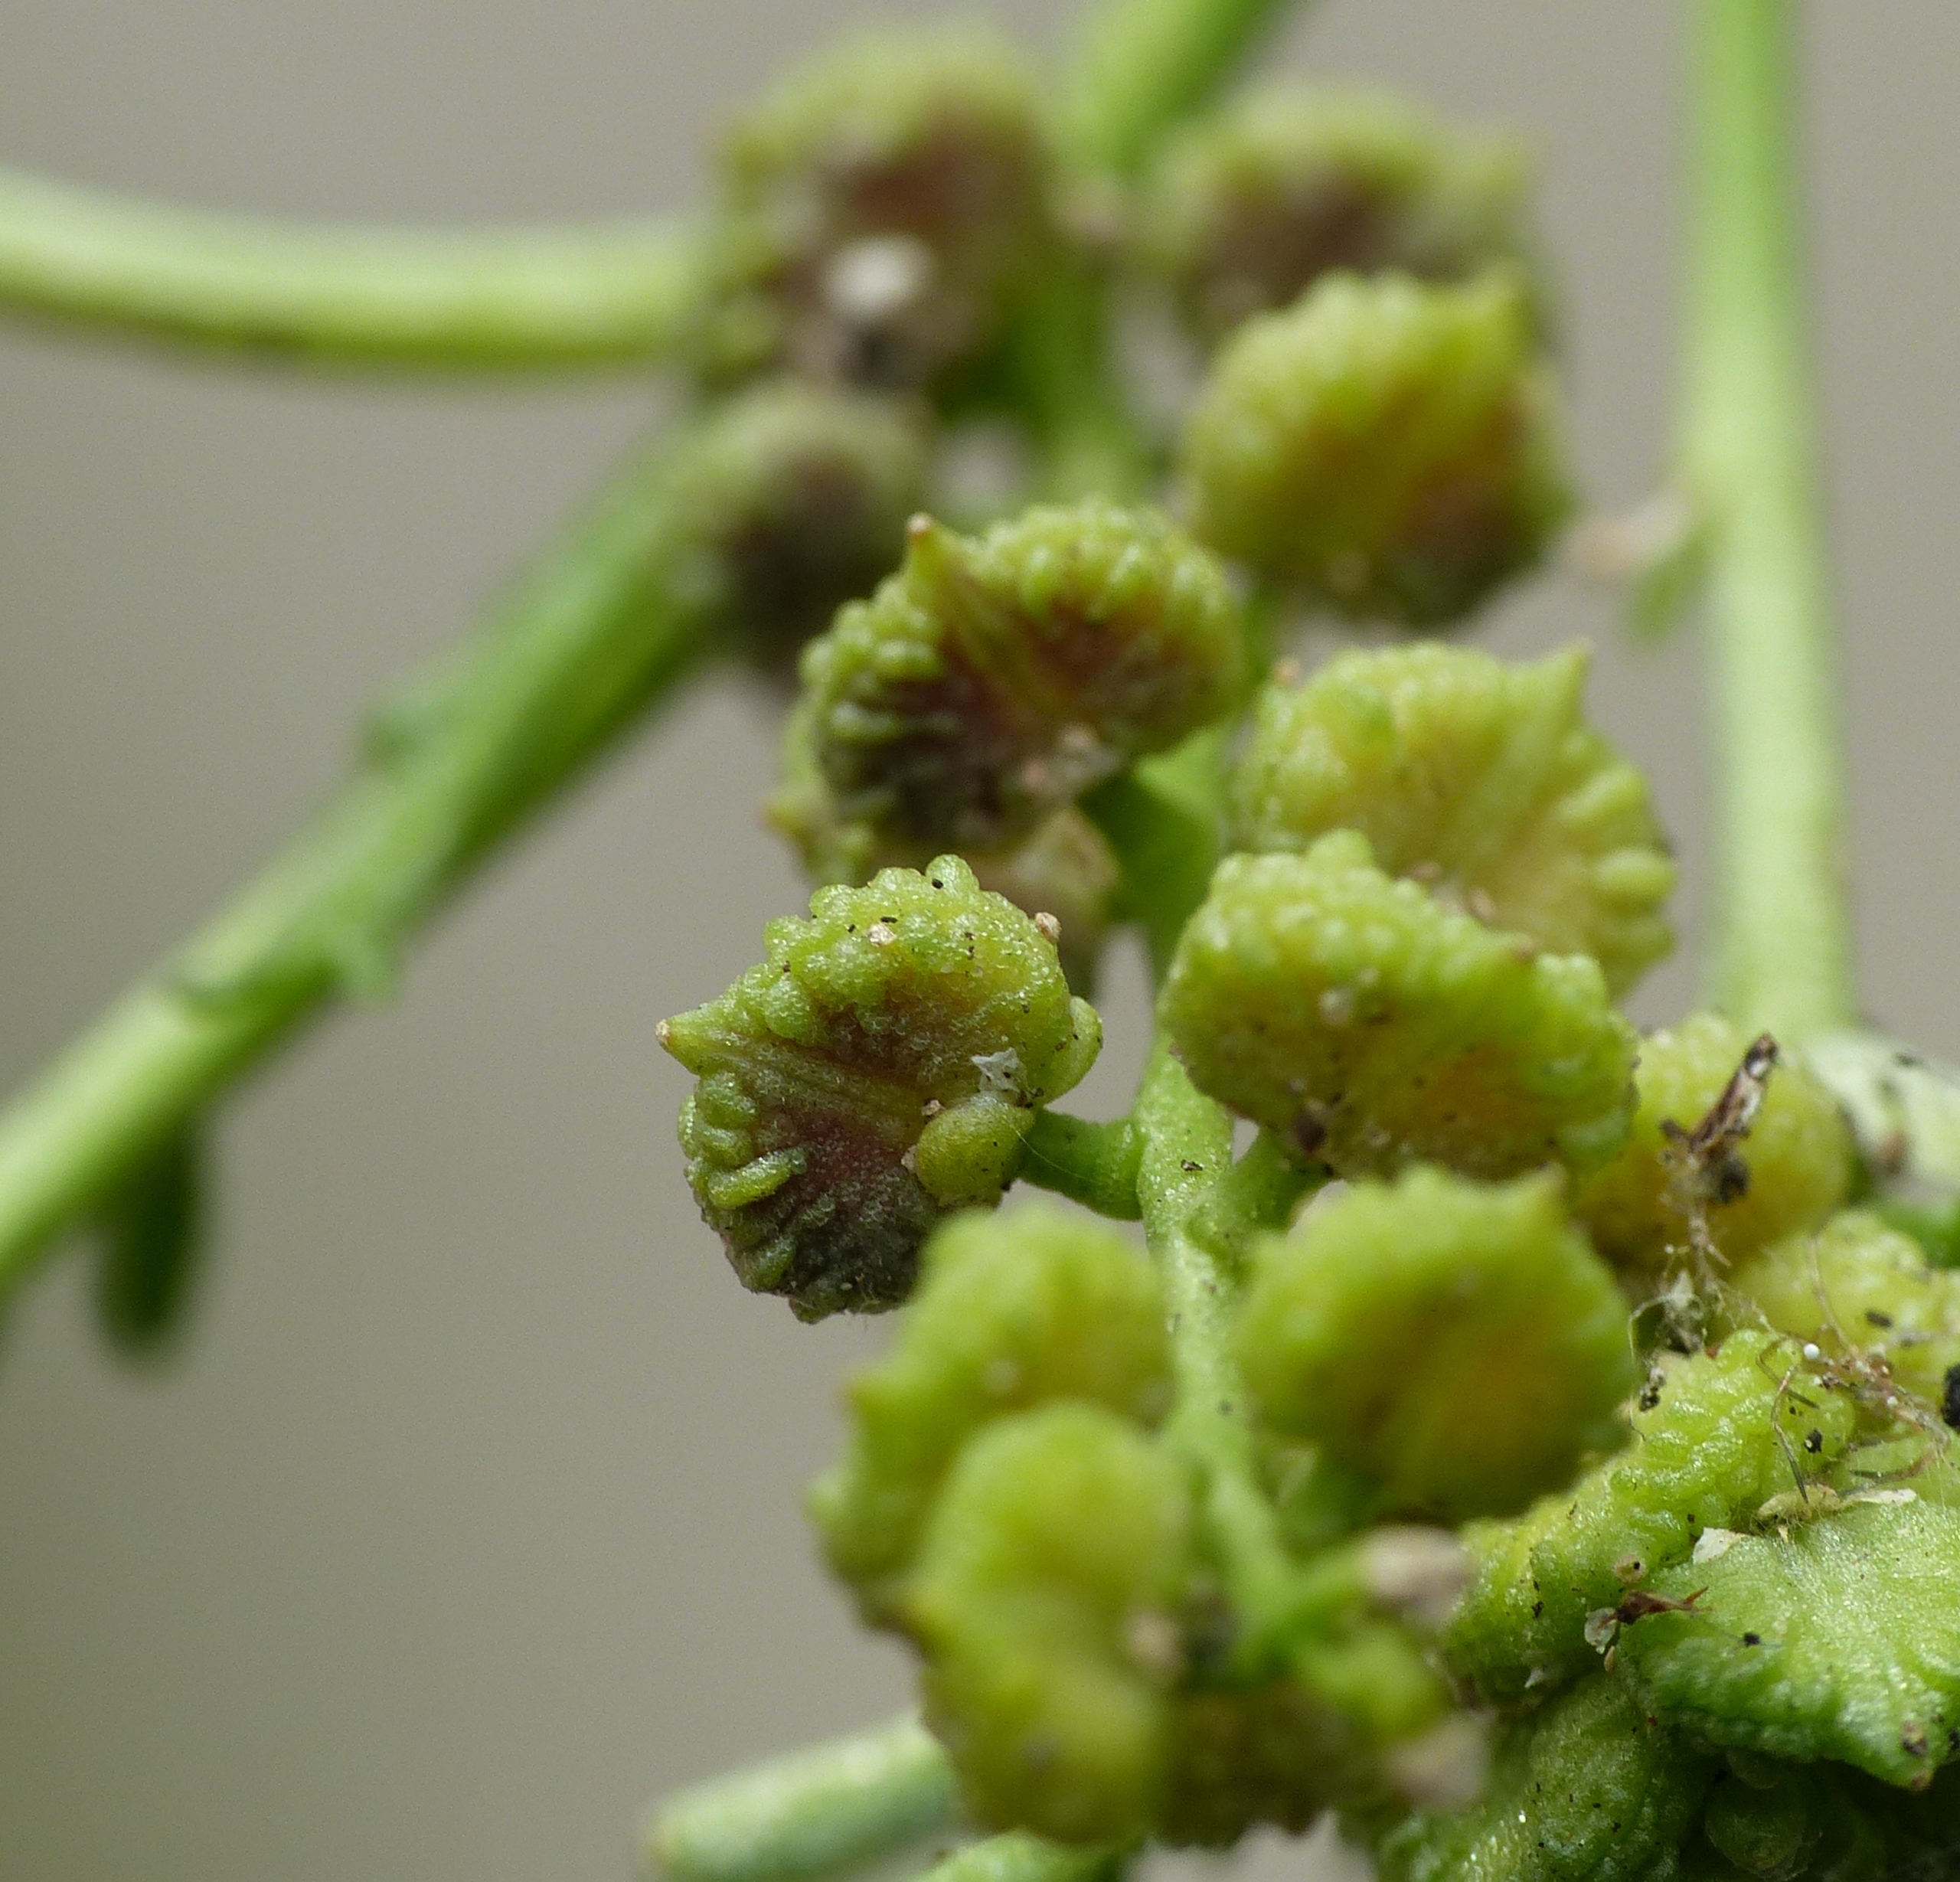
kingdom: Plantae
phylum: Tracheophyta
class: Magnoliopsida
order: Brassicales
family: Brassicaceae
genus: Lepidium
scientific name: Lepidium coronopus
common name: Ravnefod
